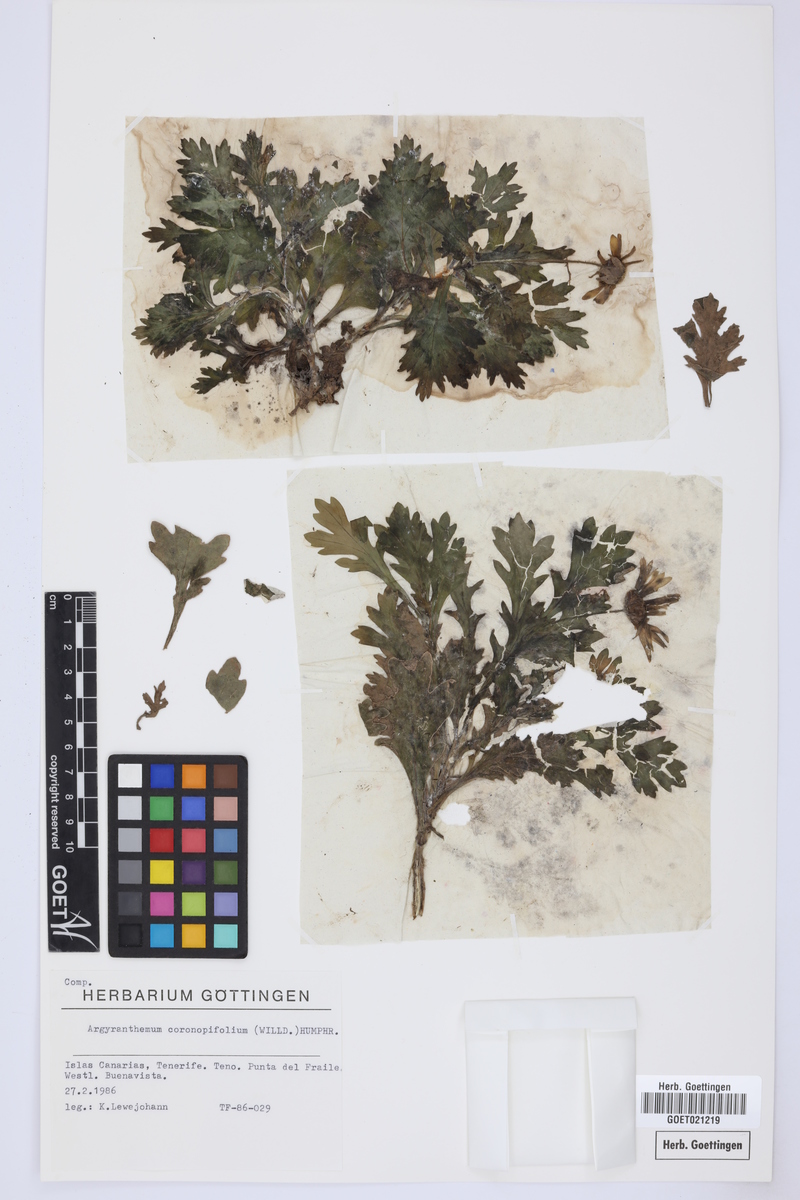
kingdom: Plantae
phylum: Tracheophyta
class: Magnoliopsida
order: Asterales
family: Asteraceae
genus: Argyranthemum
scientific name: Argyranthemum coronopifolium
